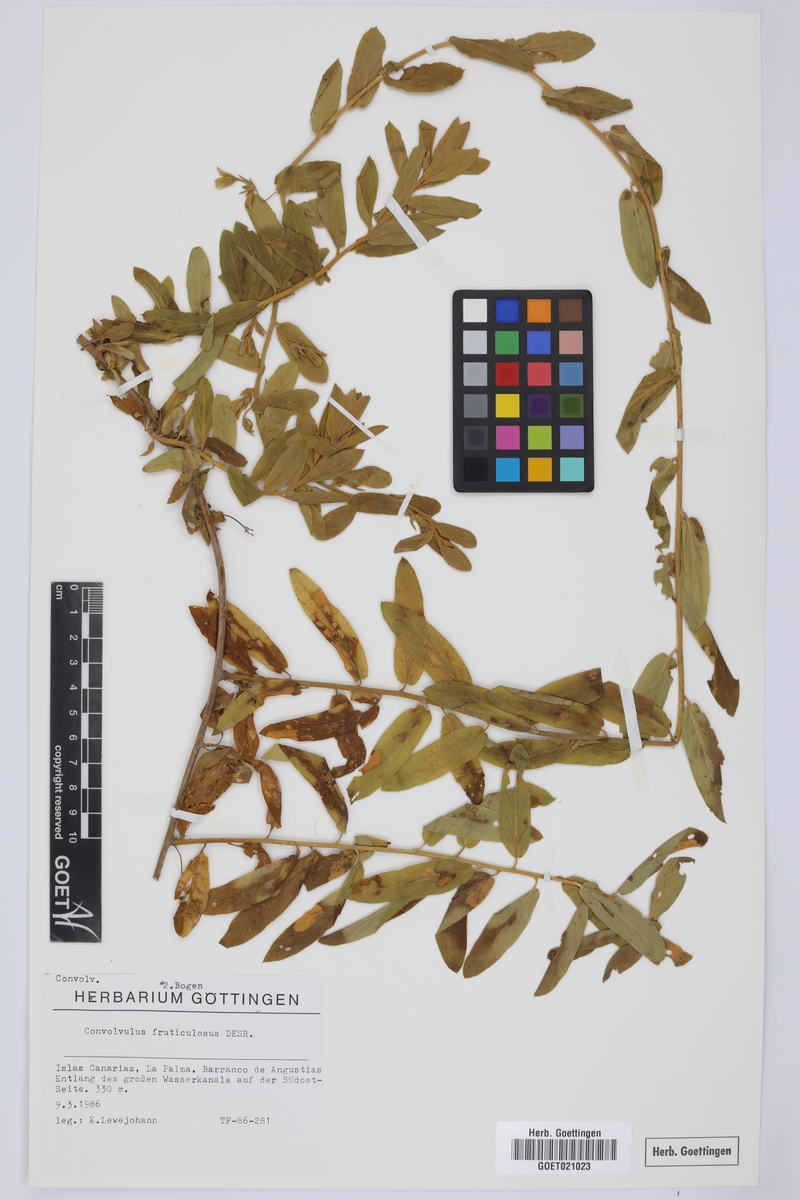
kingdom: Plantae
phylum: Tracheophyta
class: Magnoliopsida
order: Solanales
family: Convolvulaceae
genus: Convolvulus
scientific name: Convolvulus fruticulosus
